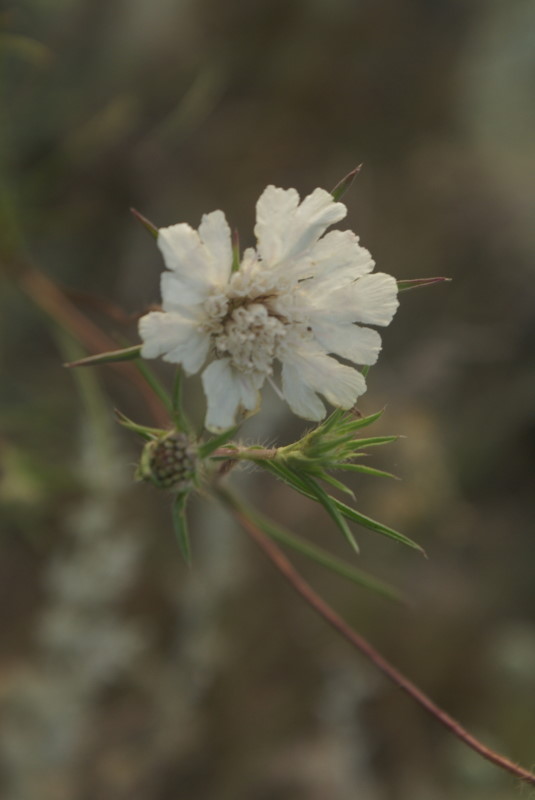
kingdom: Plantae
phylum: Tracheophyta
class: Magnoliopsida
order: Dipsacales
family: Caprifoliaceae
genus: Scabiosa
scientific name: Scabiosa
